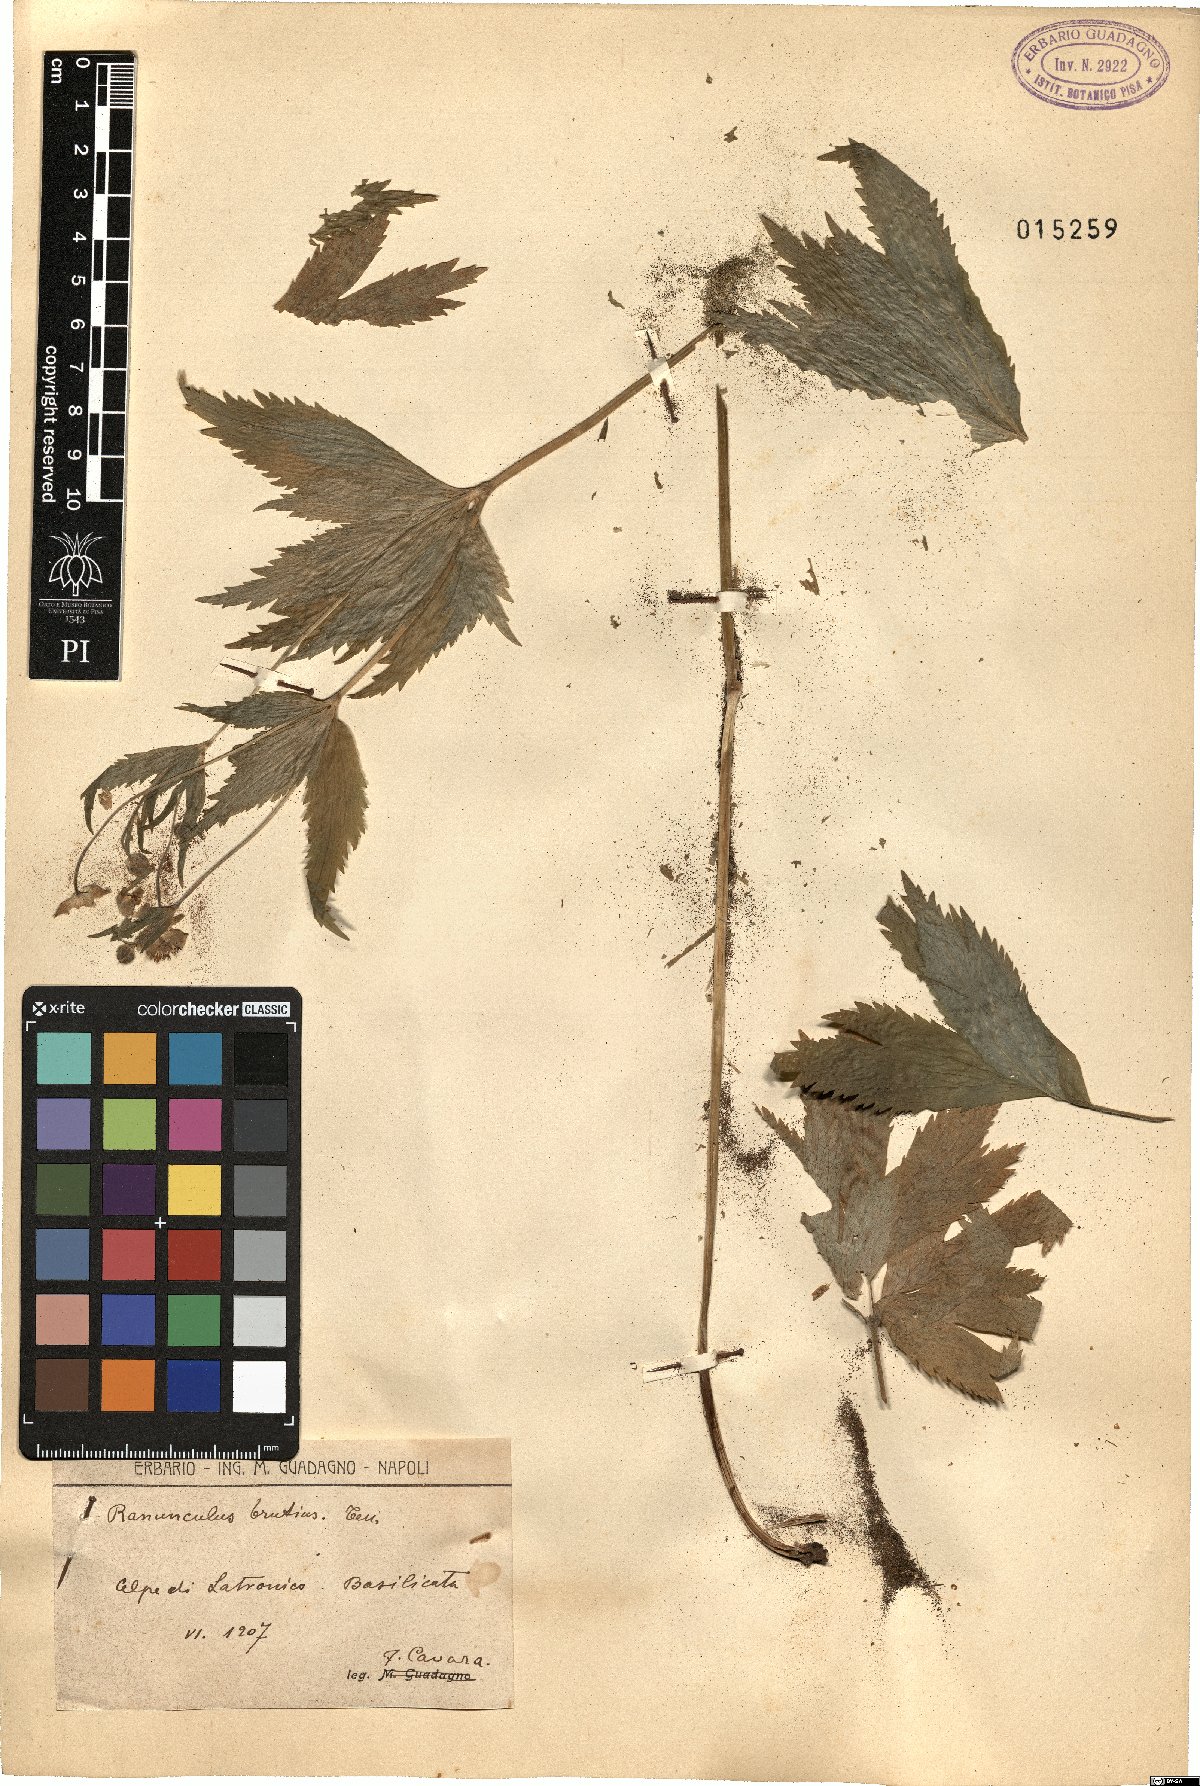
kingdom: Plantae
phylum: Tracheophyta
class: Magnoliopsida
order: Ranunculales
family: Ranunculaceae
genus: Ranunculus
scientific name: Ranunculus brutius
